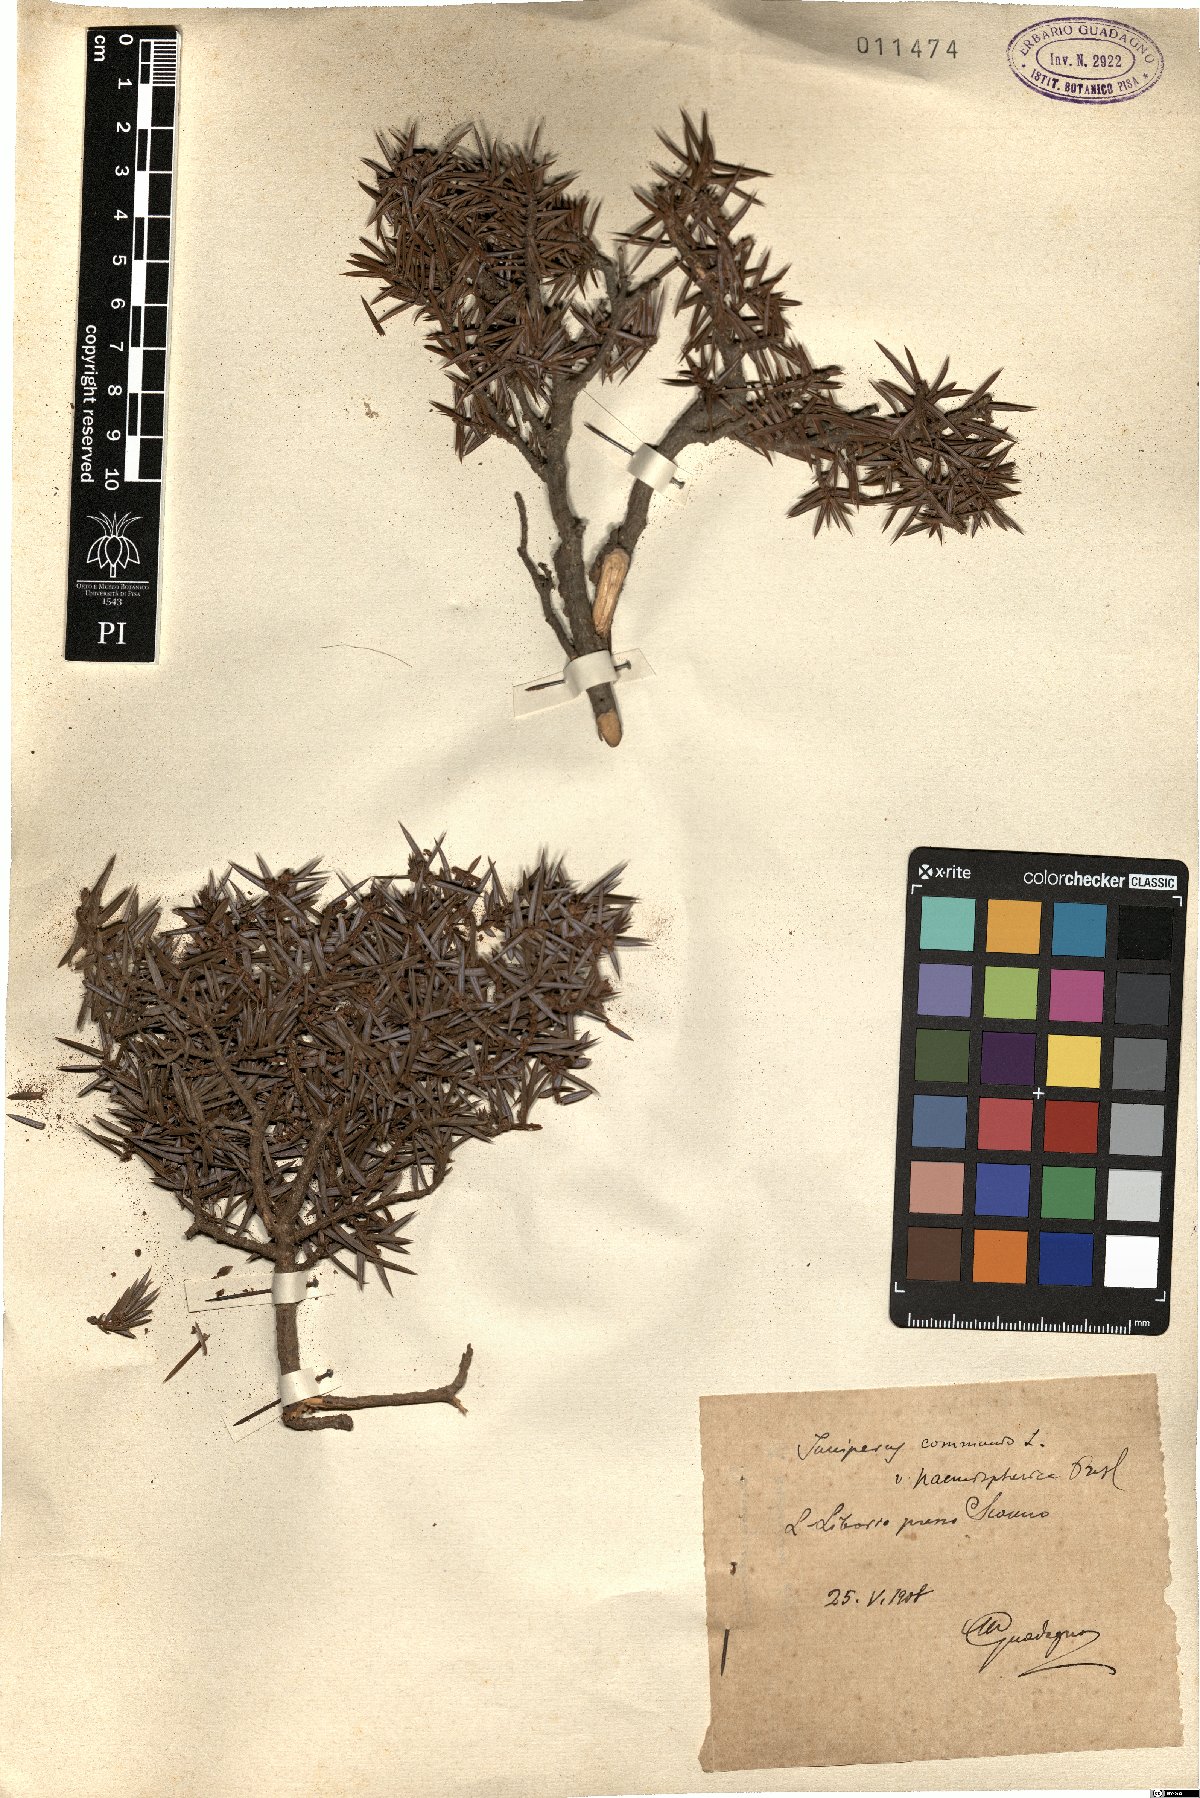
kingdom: Plantae
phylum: Tracheophyta
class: Pinopsida
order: Pinales
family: Cupressaceae
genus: Juniperus
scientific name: Juniperus communis
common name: Common juniper
